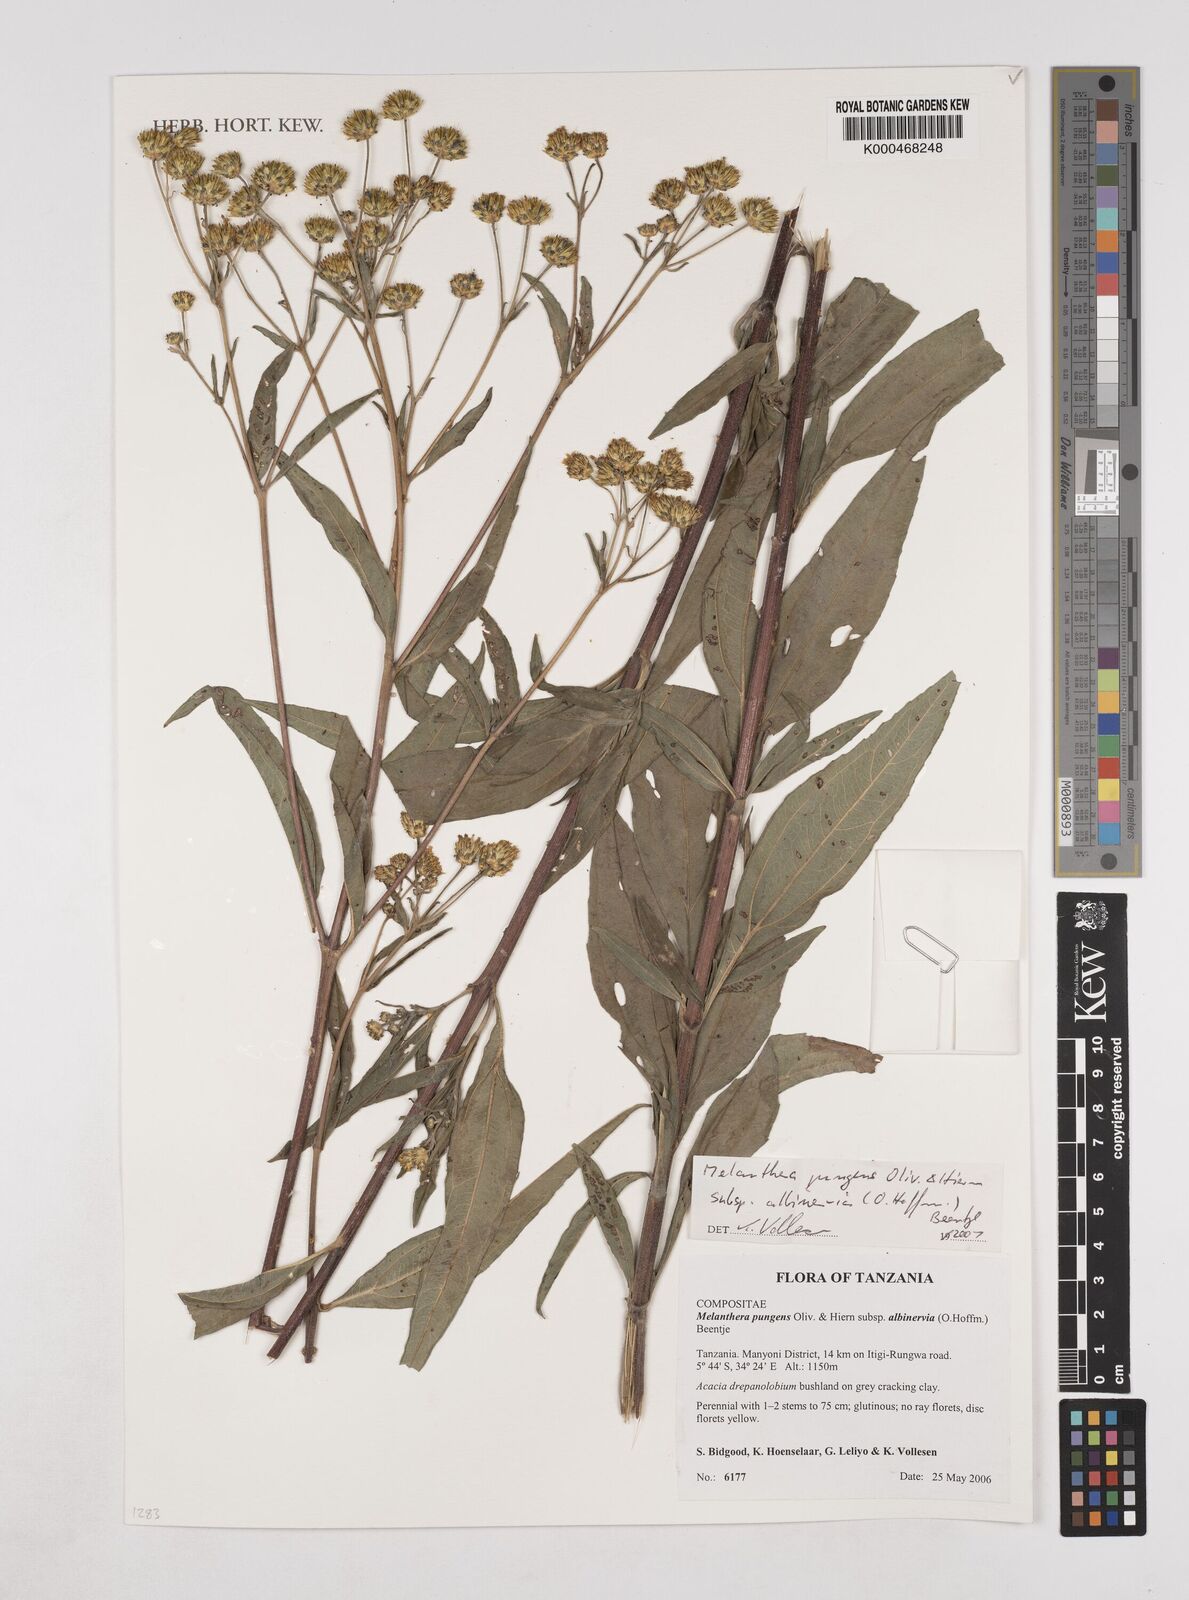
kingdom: Plantae
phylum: Tracheophyta
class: Magnoliopsida
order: Asterales
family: Asteraceae
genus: Lipotriche
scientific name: Lipotriche pungens
